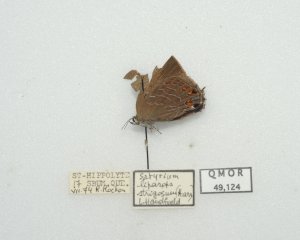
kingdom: Animalia
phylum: Arthropoda
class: Insecta
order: Lepidoptera
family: Lycaenidae
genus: Satyrium
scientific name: Satyrium liparops
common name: Striped Hairstreak
